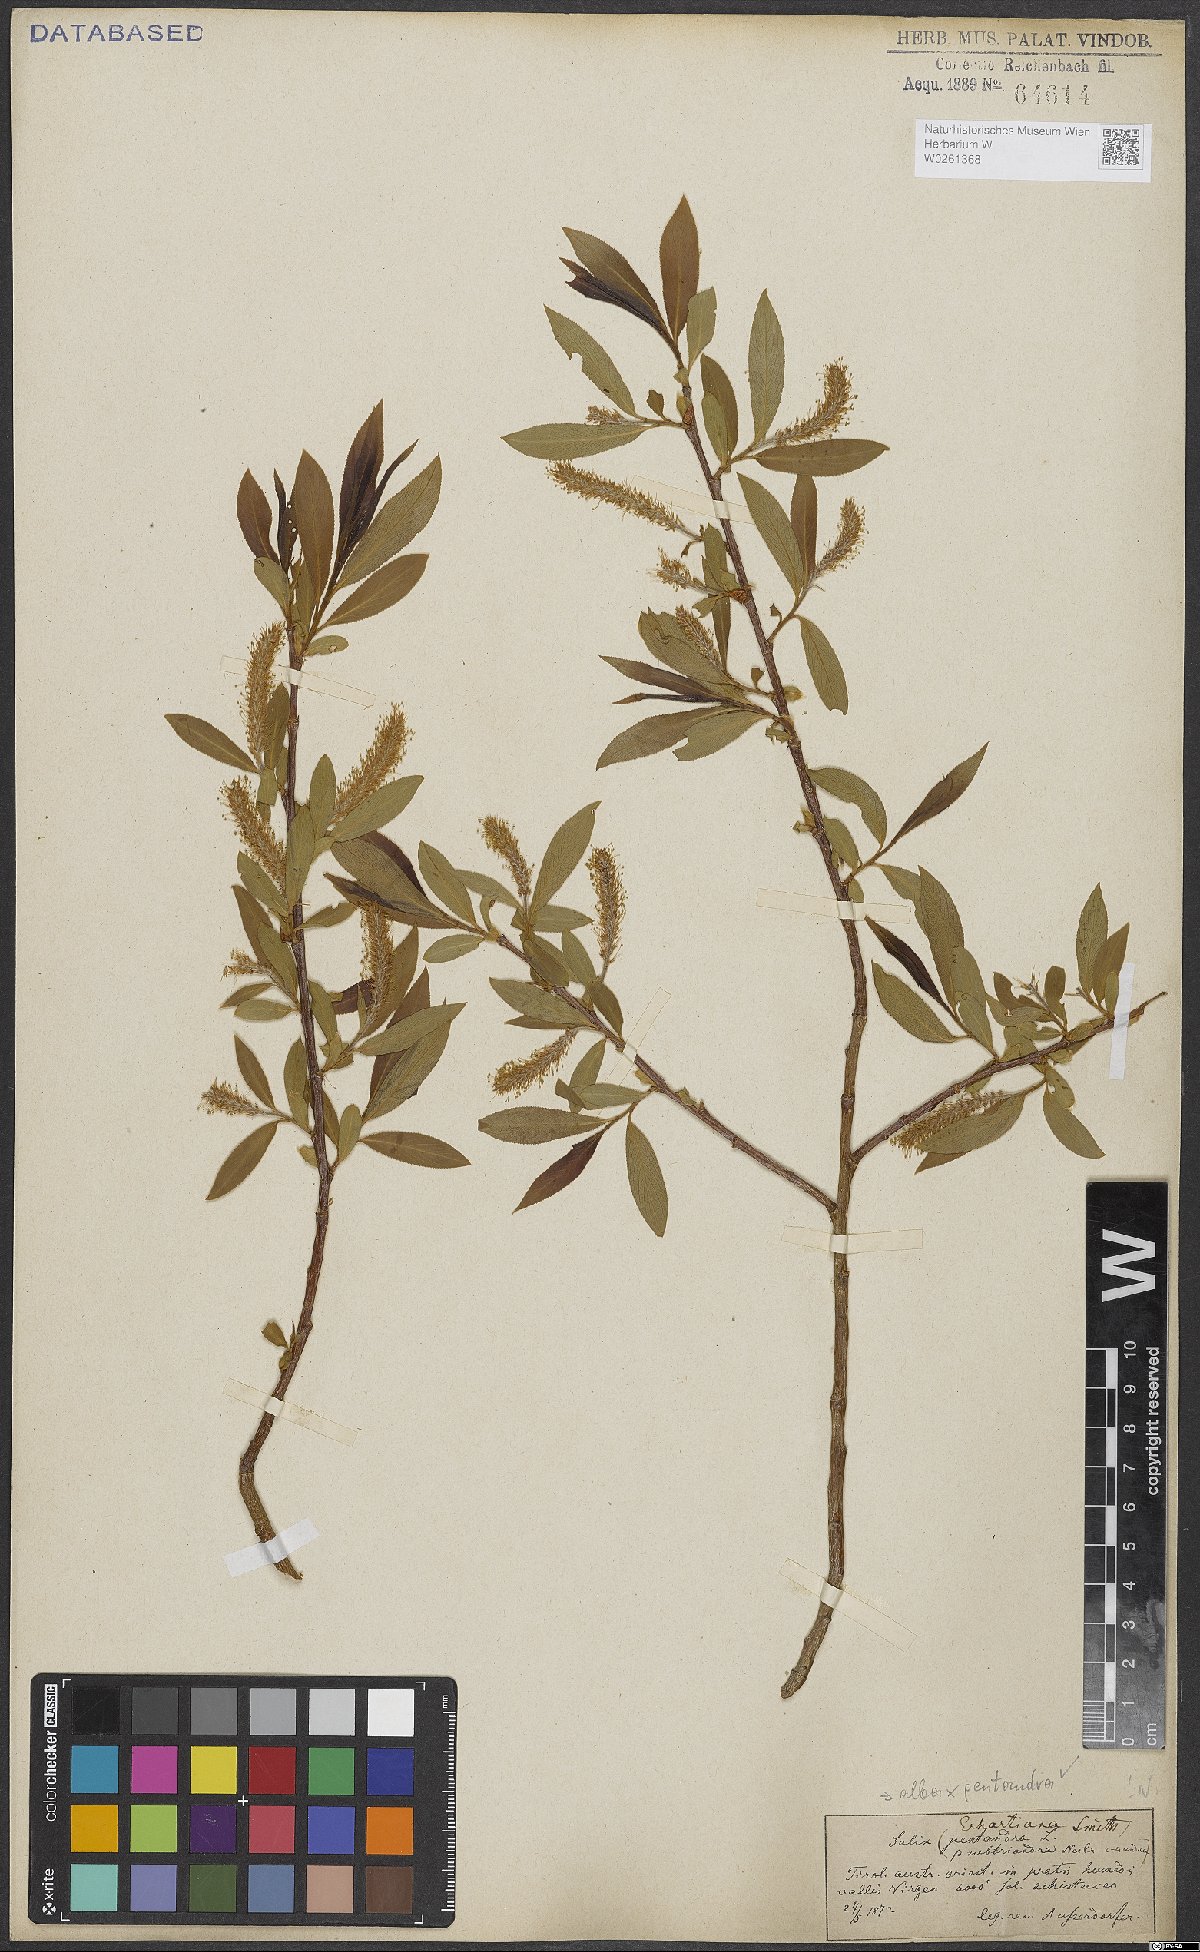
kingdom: Plantae
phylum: Tracheophyta
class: Magnoliopsida
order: Malpighiales
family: Salicaceae
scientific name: Salicaceae
